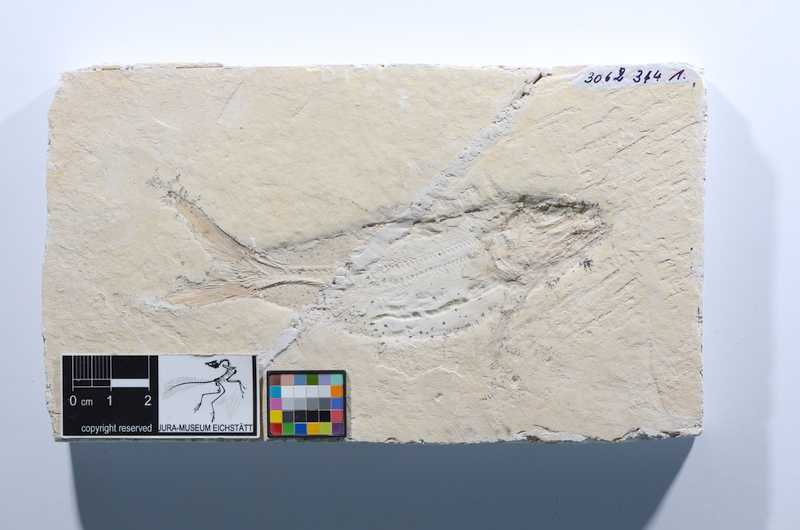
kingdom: Animalia
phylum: Chordata
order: Amiiformes
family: Caturidae
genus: Caturus
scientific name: Caturus furcatus
